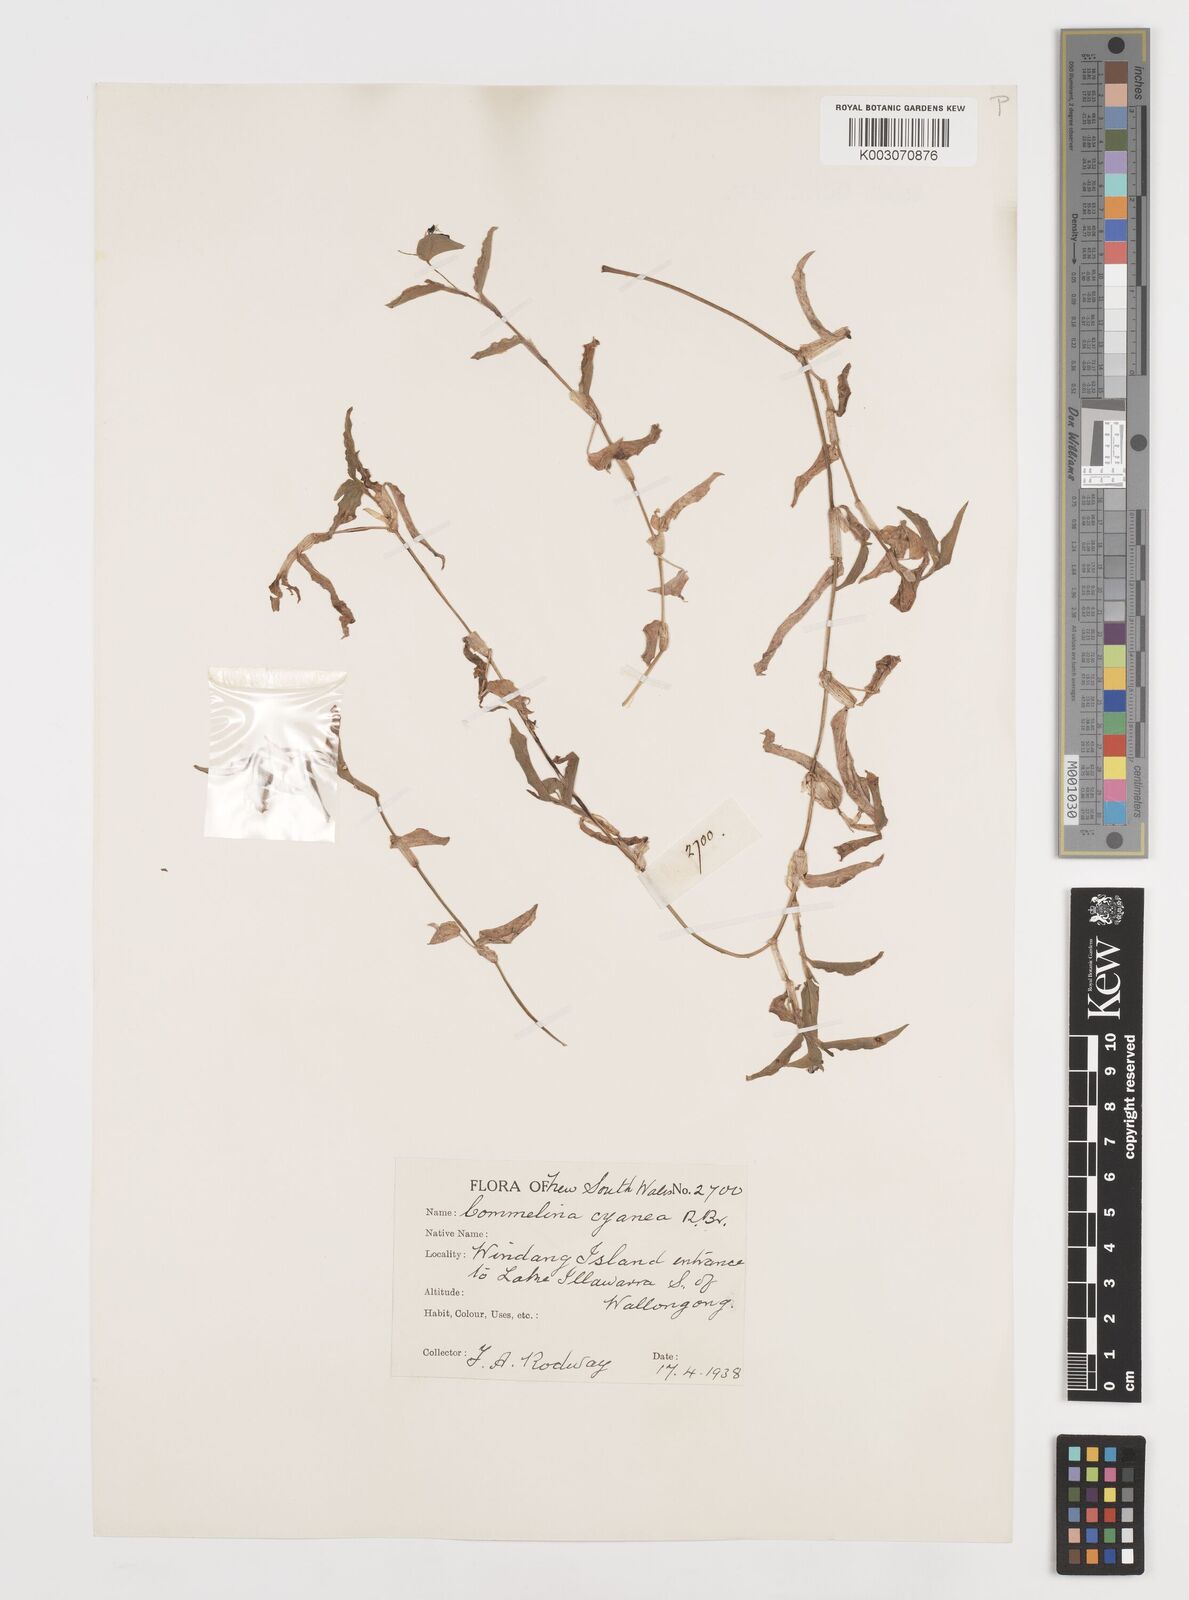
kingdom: Plantae
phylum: Tracheophyta
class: Liliopsida
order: Commelinales
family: Commelinaceae
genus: Commelina
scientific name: Commelina cyanea
